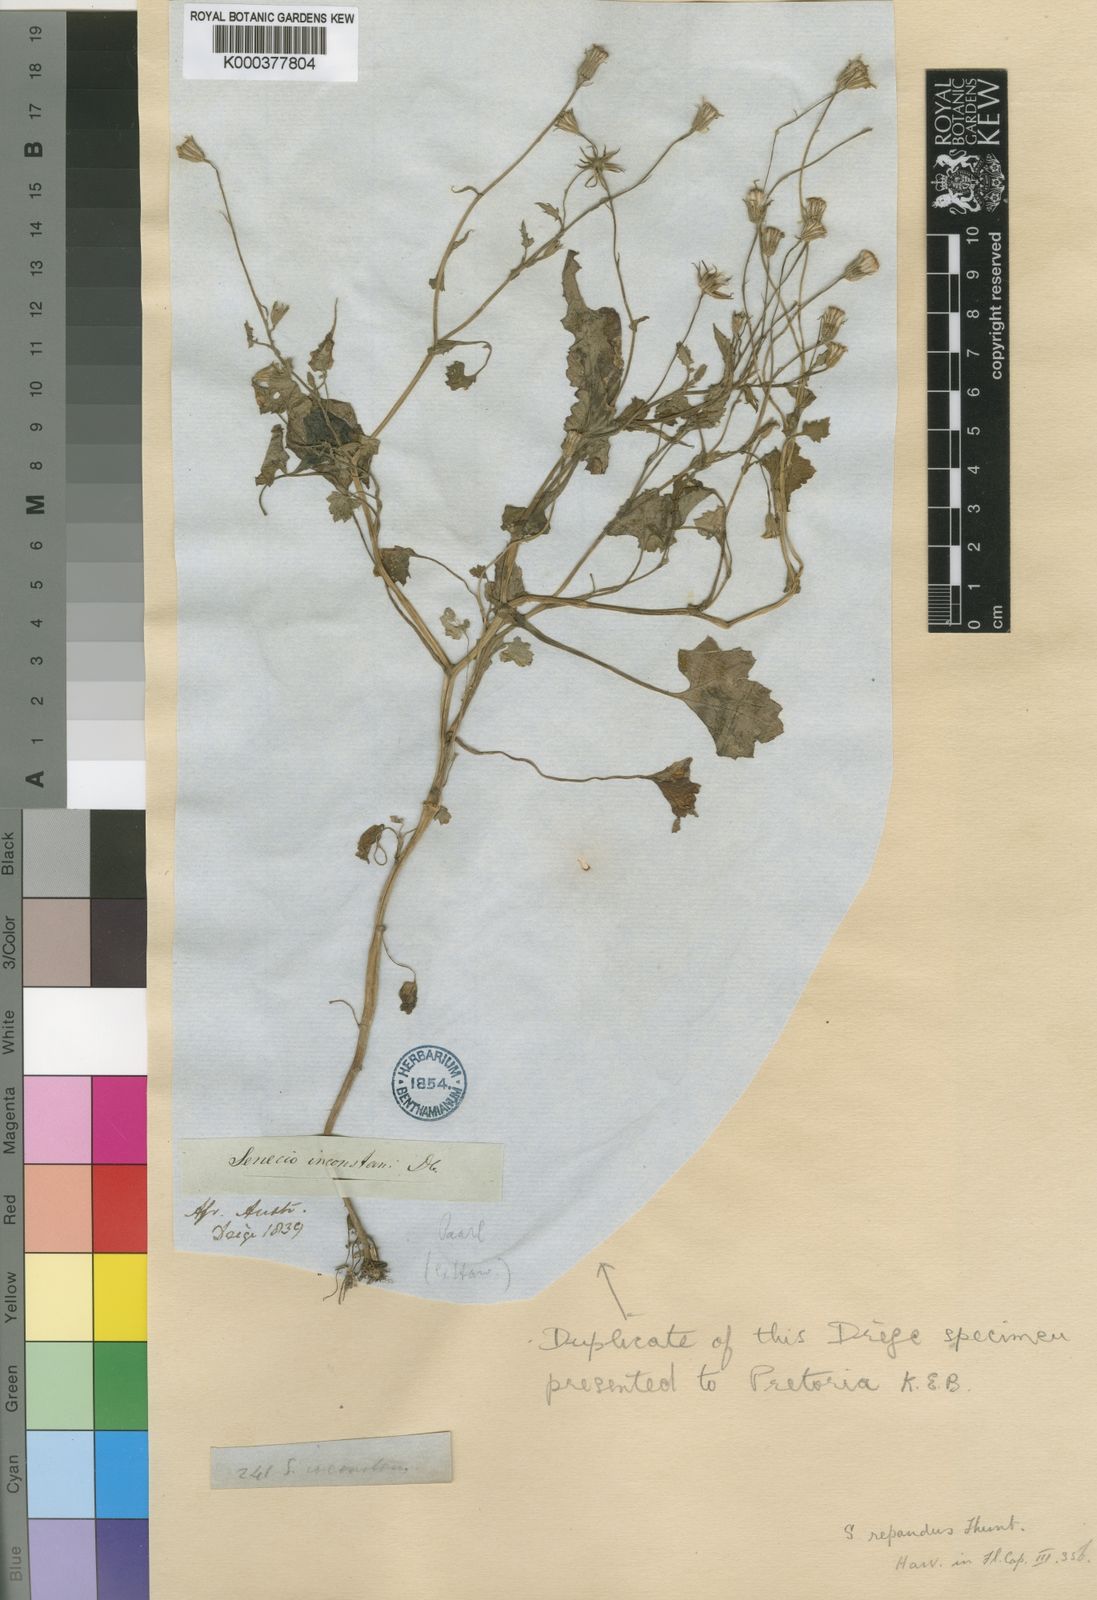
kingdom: Plantae
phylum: Tracheophyta
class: Magnoliopsida
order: Asterales
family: Asteraceae
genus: Senecio
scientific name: Senecio repandus
